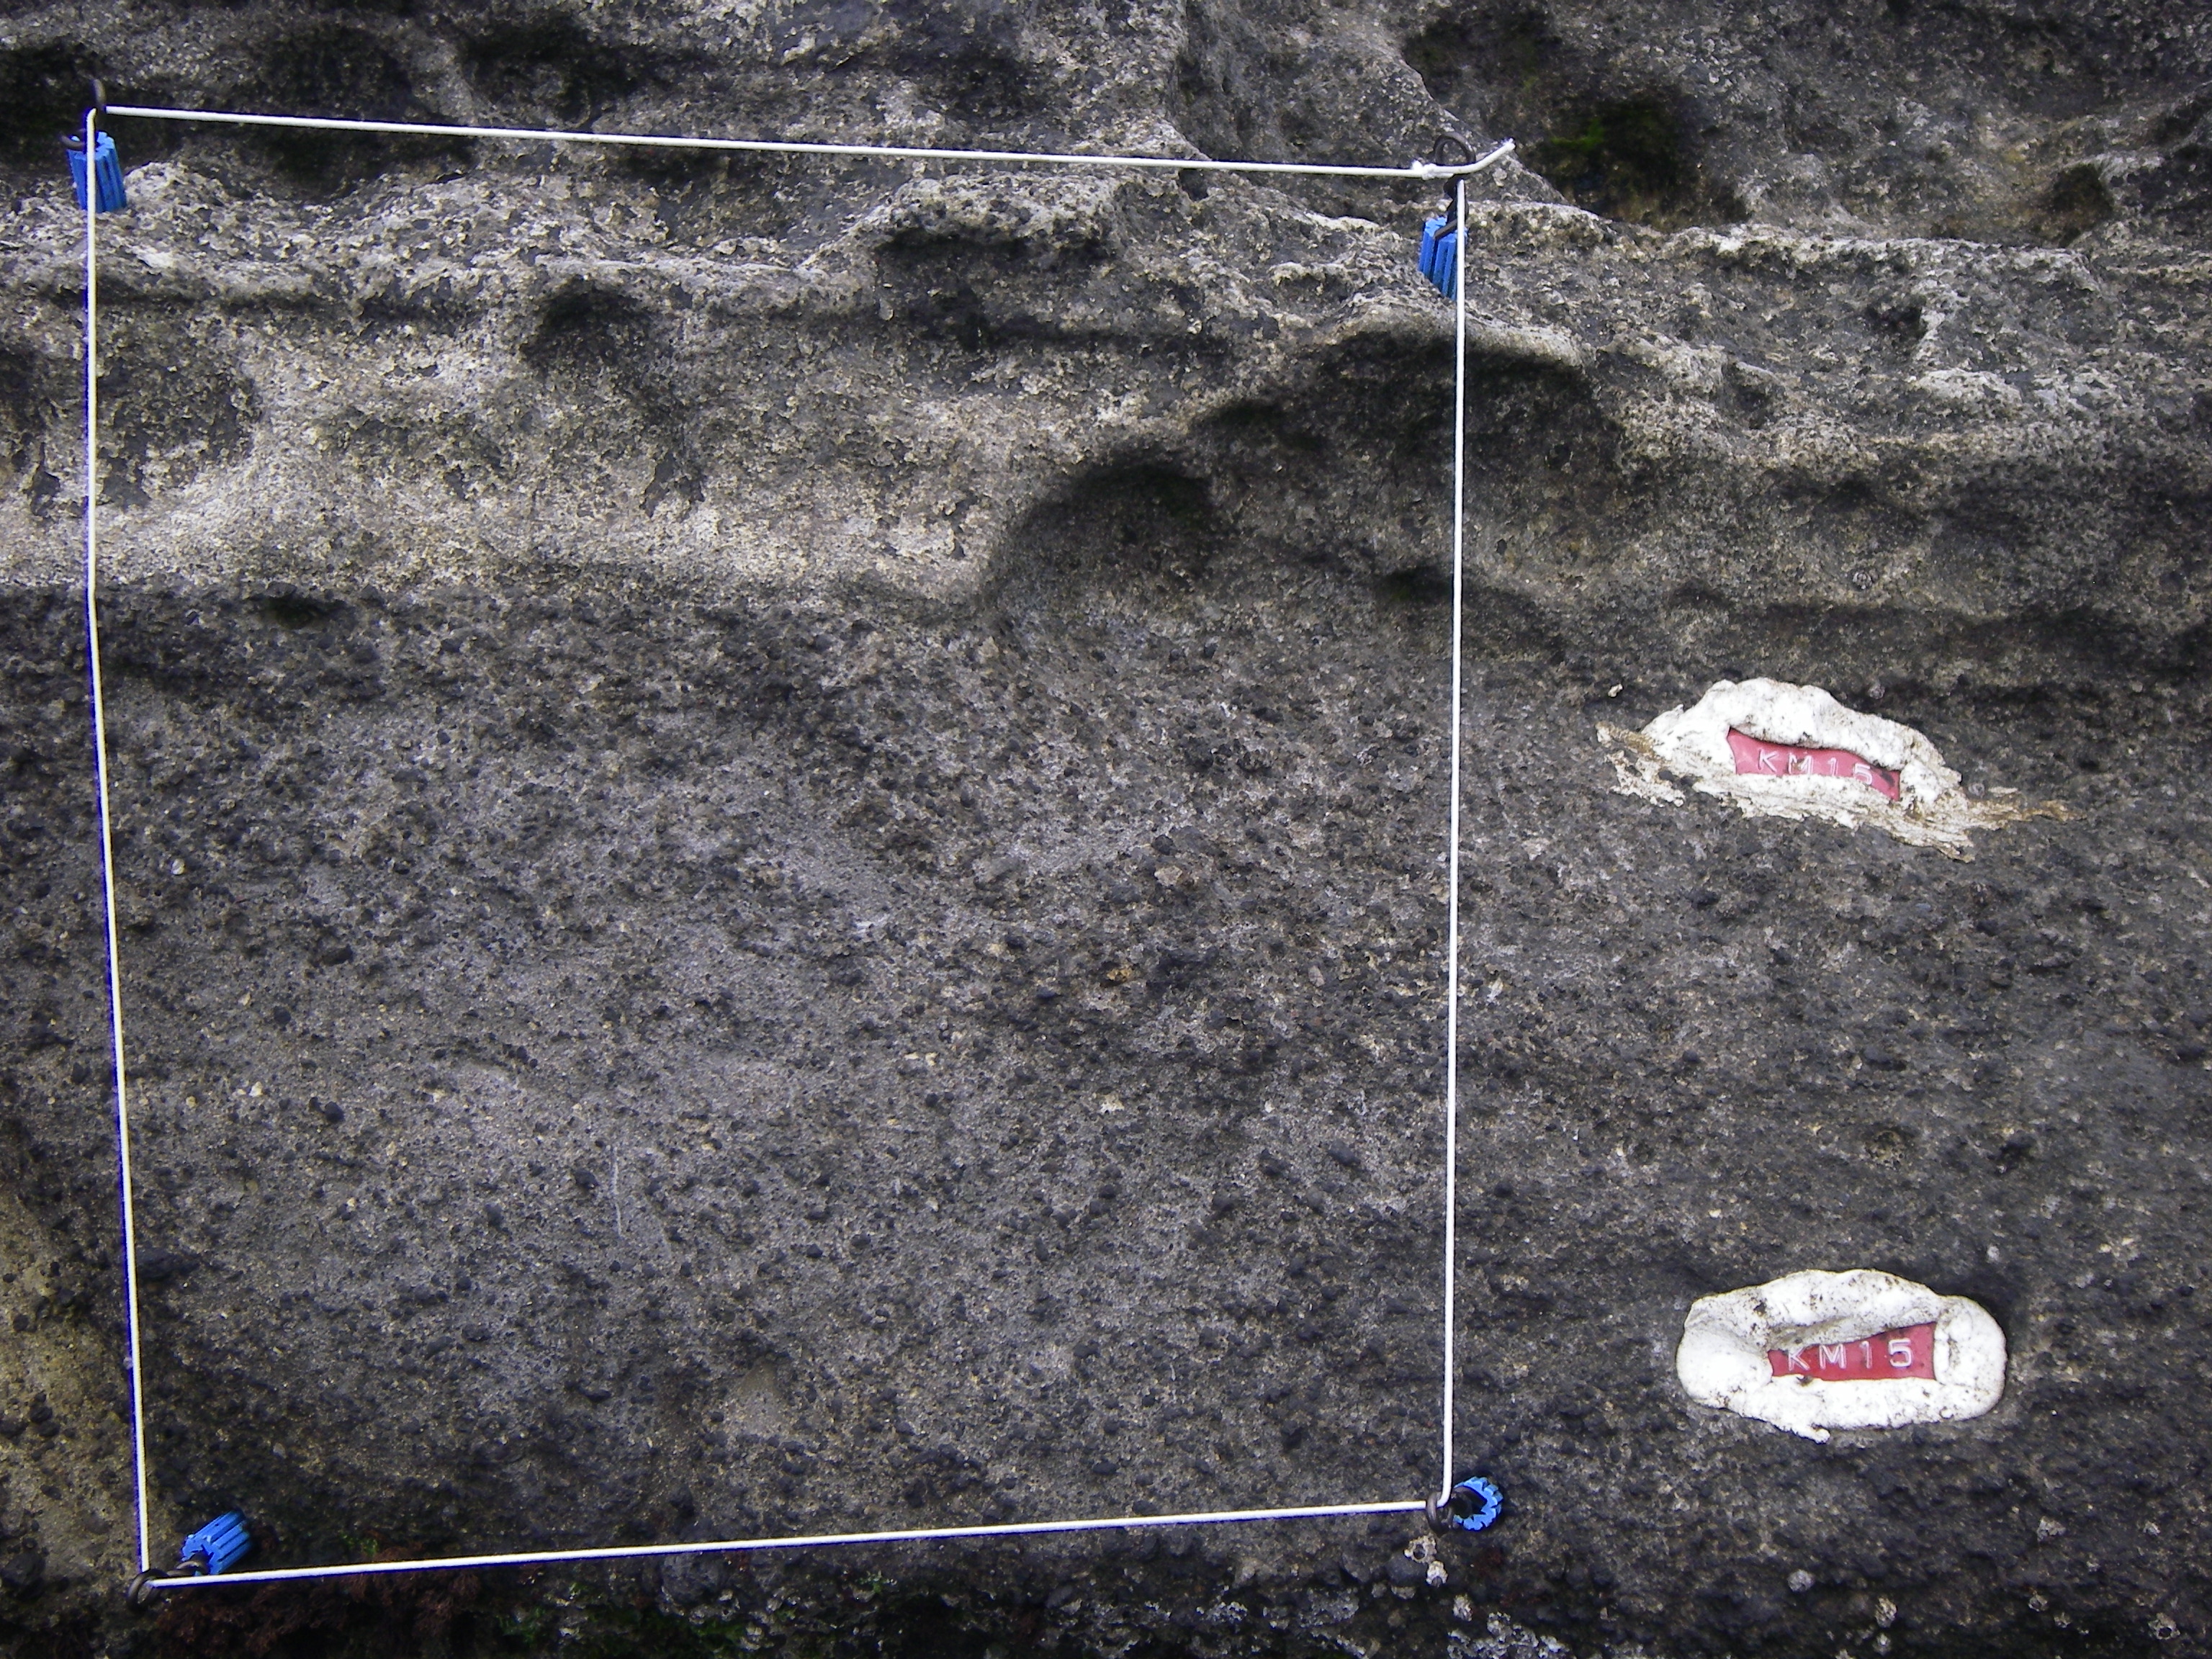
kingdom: Animalia
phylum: Arthropoda
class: Maxillopoda
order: Sessilia
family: Chthamalidae
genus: Chthamalus
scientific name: Chthamalus challengeri
